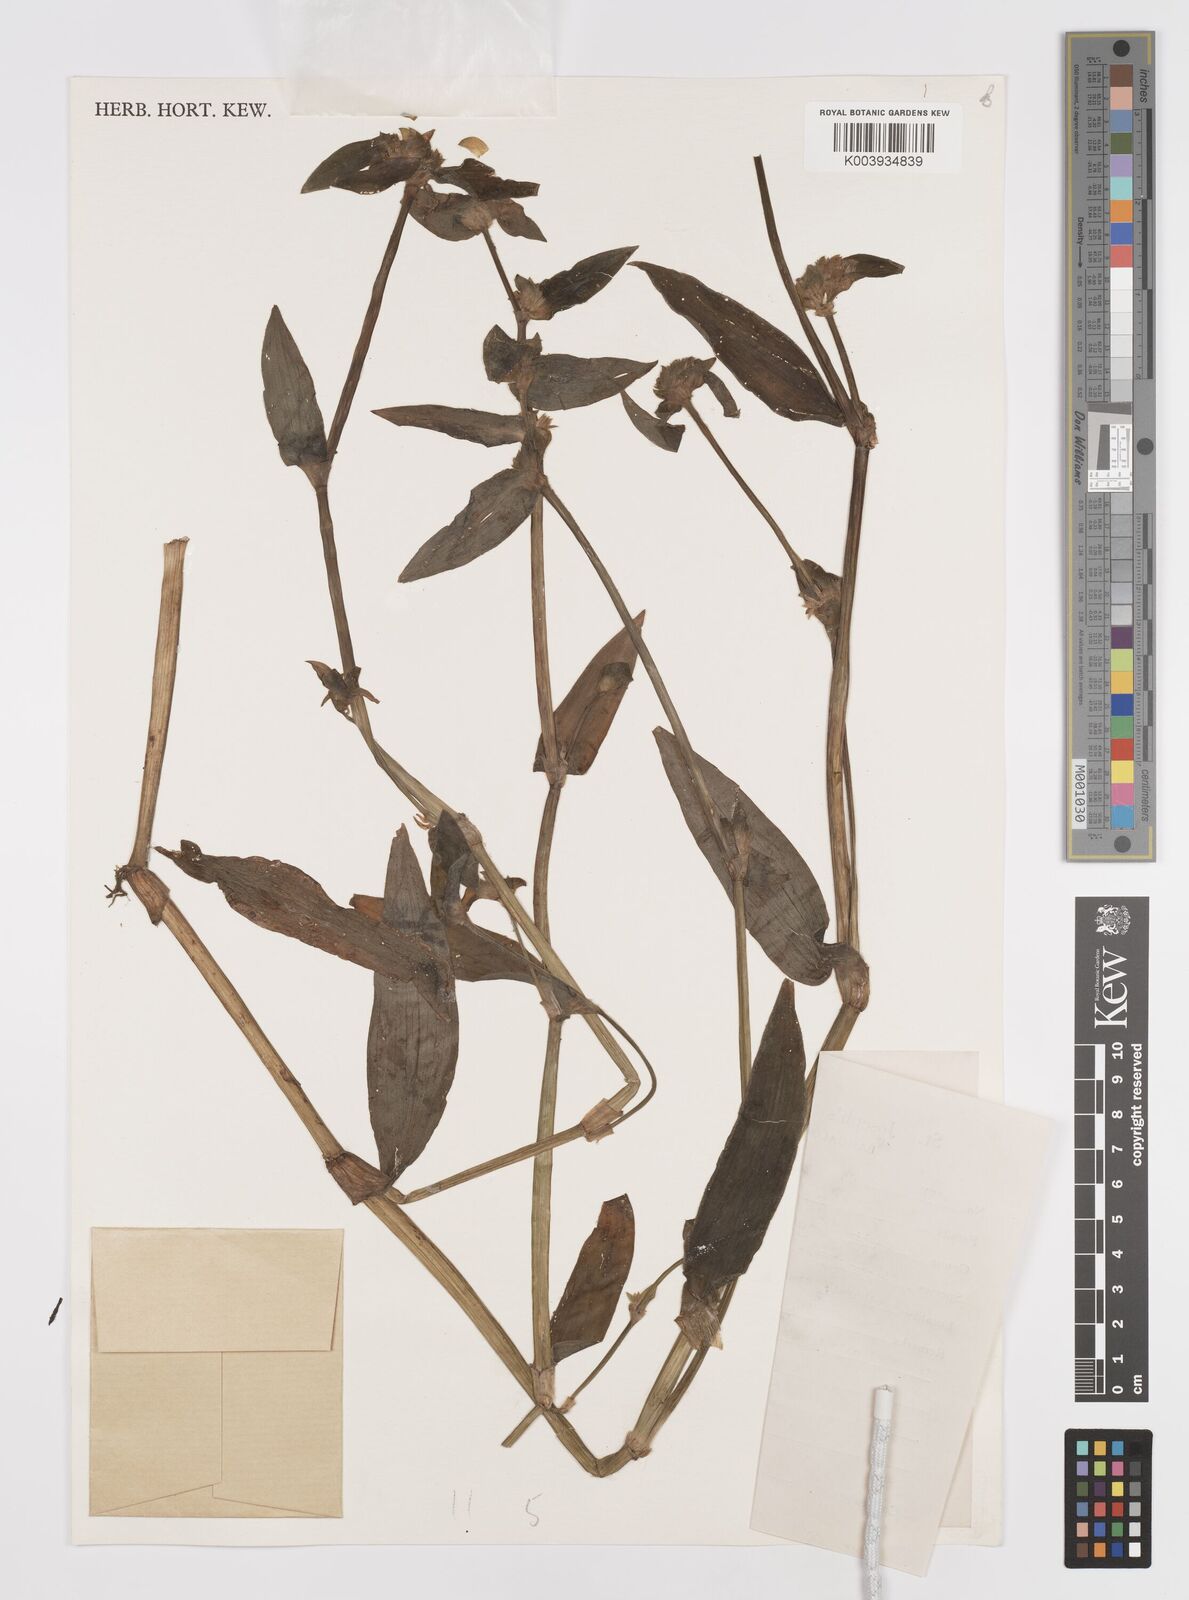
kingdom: Plantae
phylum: Tracheophyta
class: Liliopsida
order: Commelinales
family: Commelinaceae
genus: Cyanotis
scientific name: Cyanotis
